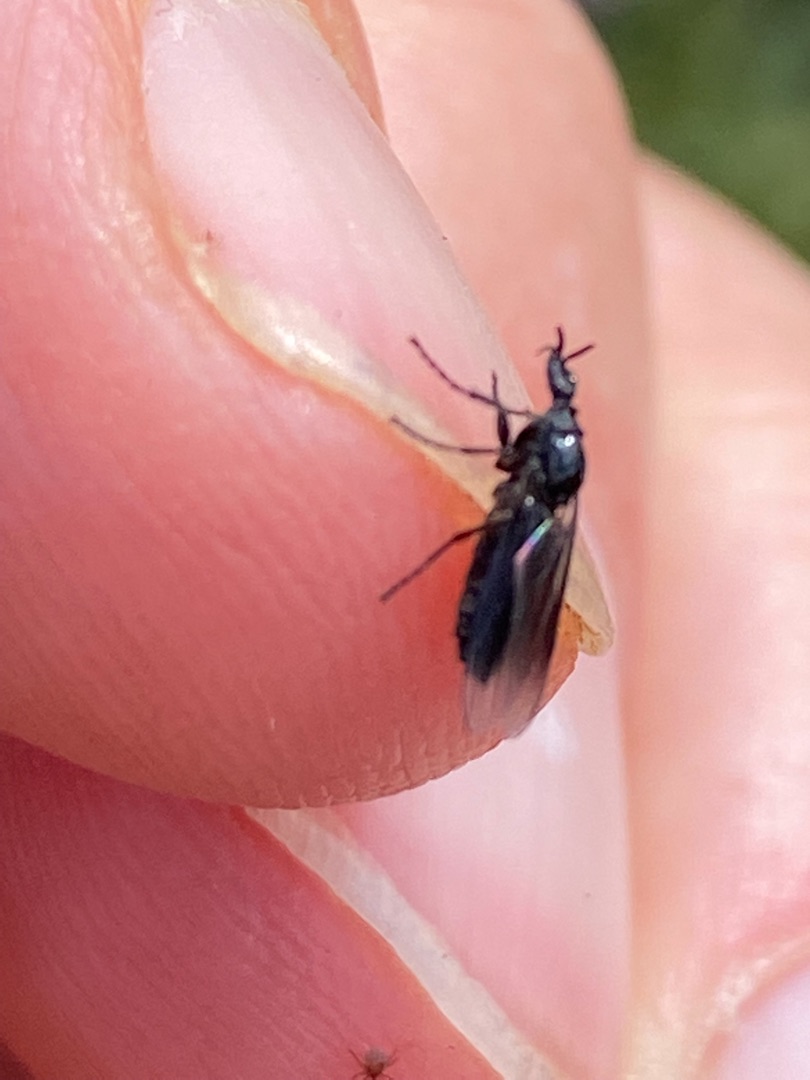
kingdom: Animalia
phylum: Arthropoda
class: Insecta
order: Diptera
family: Bibionidae
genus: Dilophus
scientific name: Dilophus febrilis
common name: Græshårmyg
